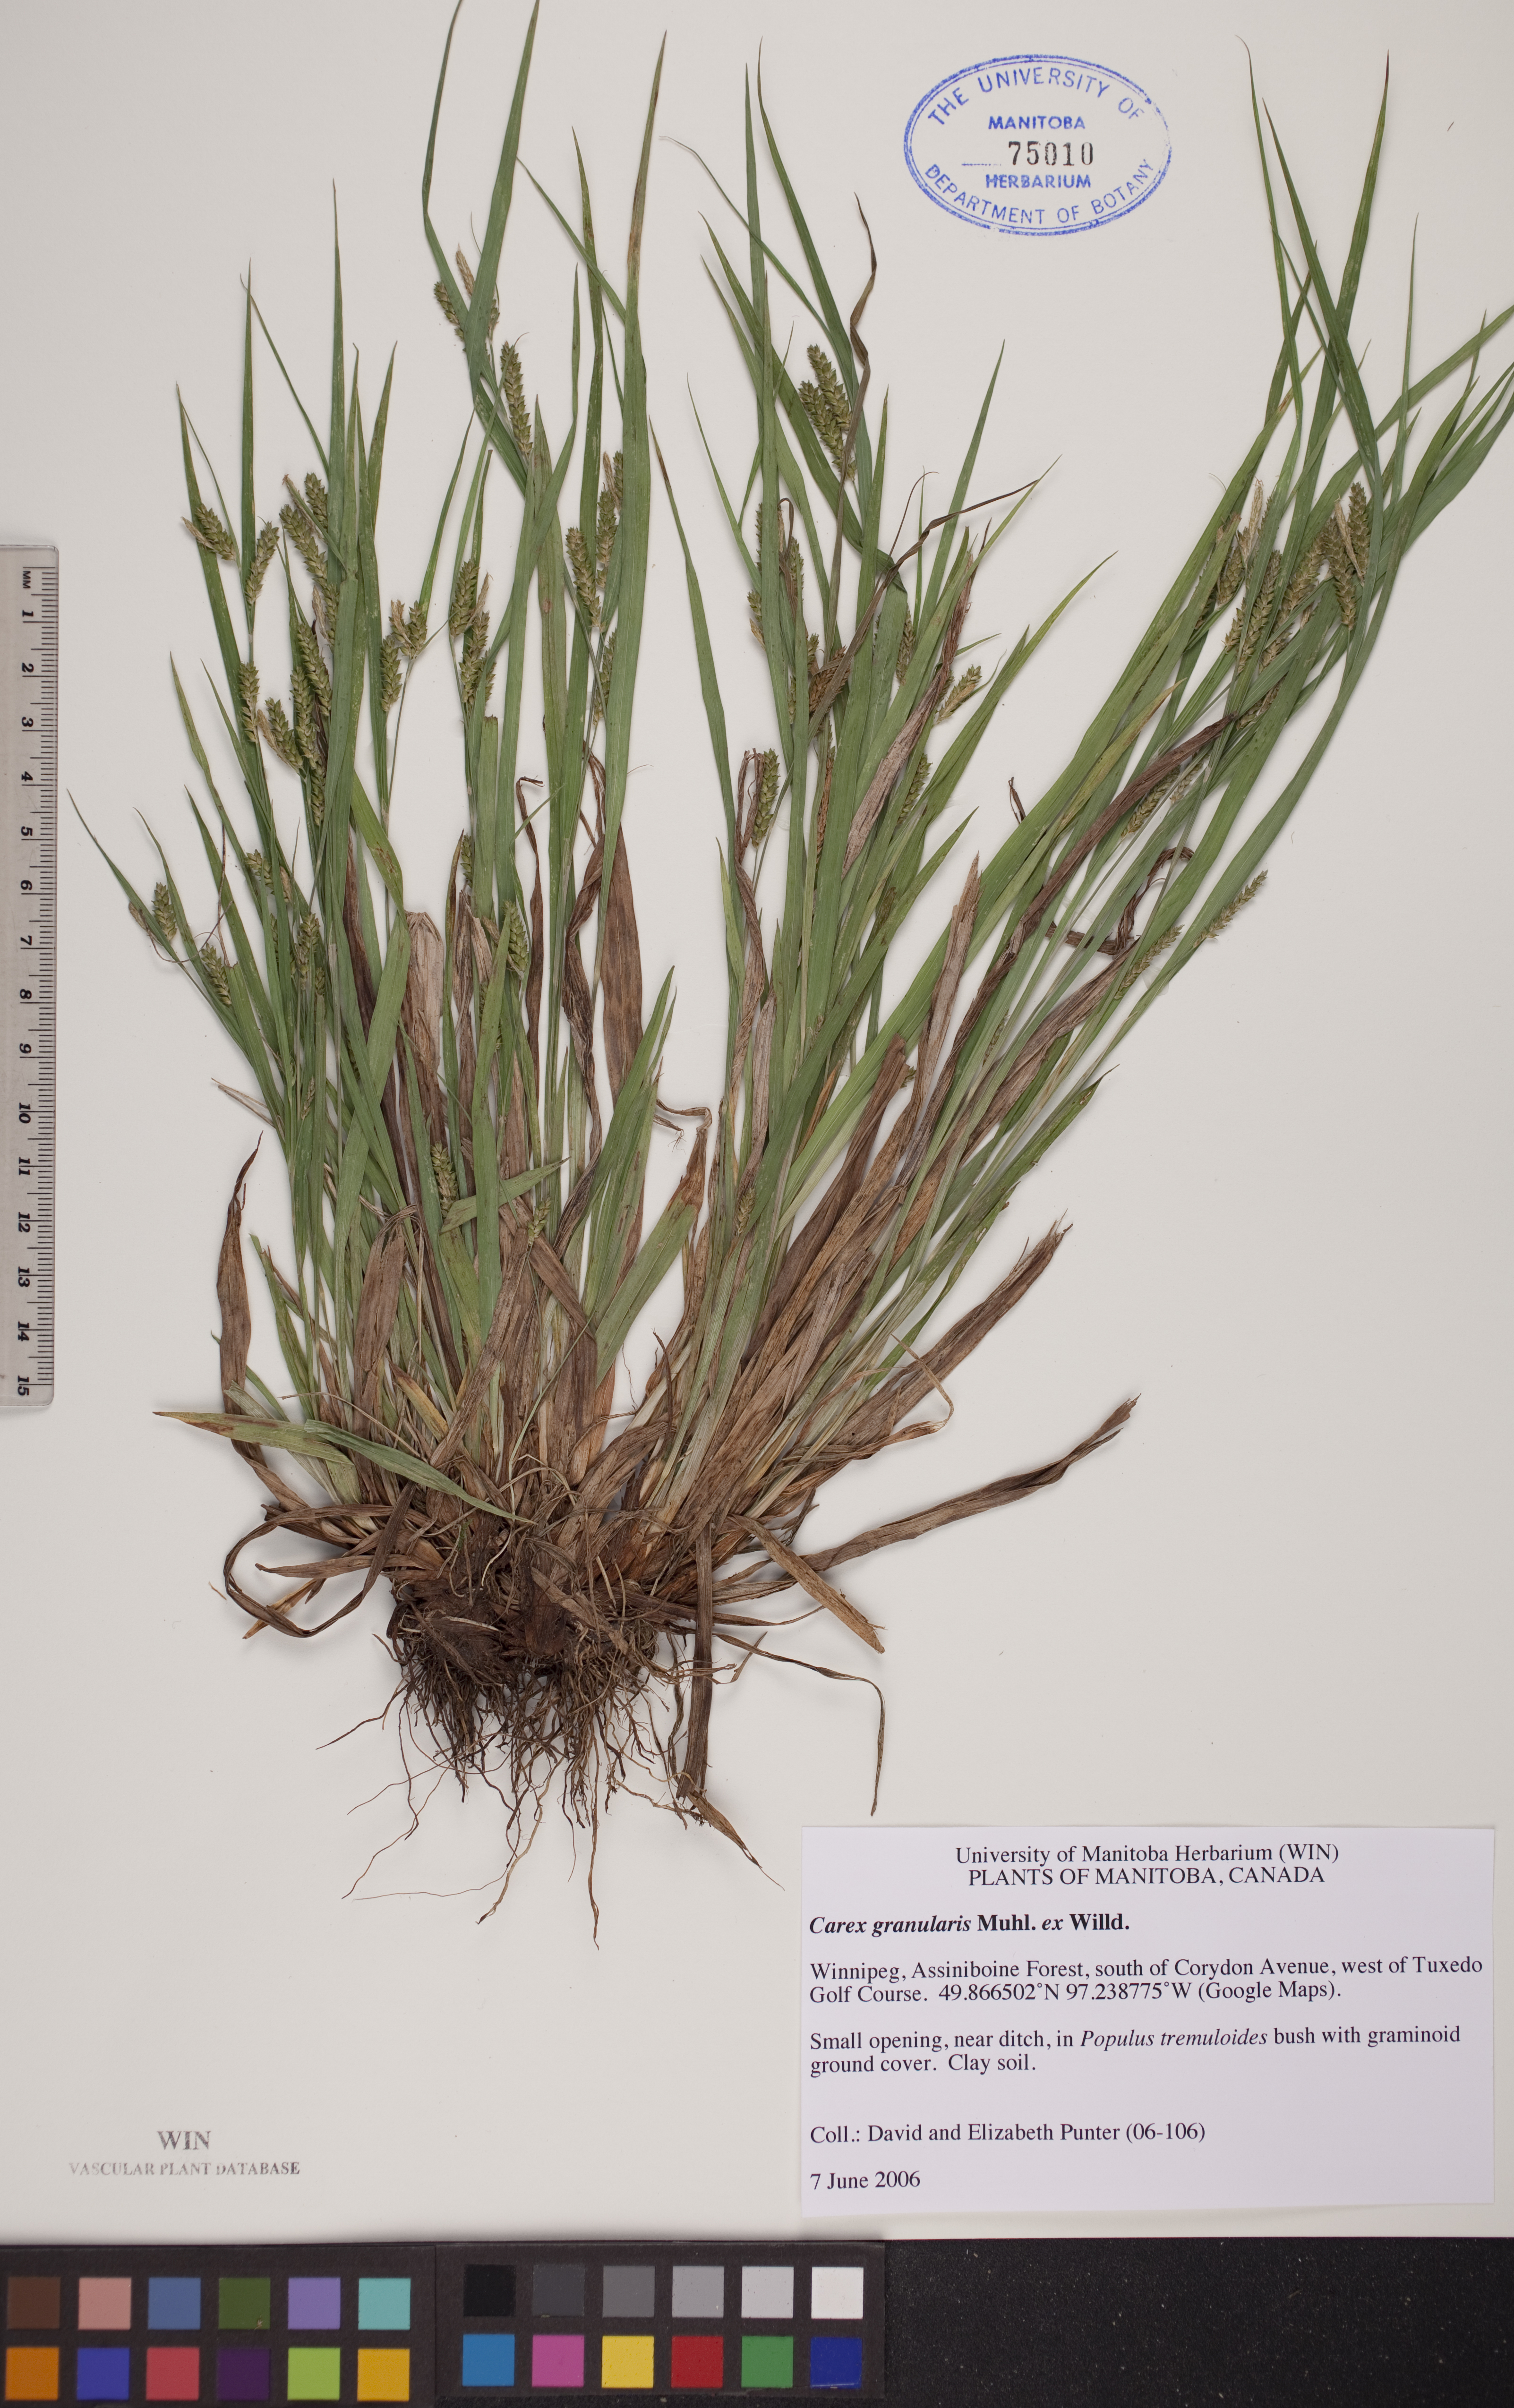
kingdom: Plantae
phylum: Tracheophyta
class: Liliopsida
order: Poales
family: Cyperaceae
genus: Carex
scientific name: Carex granularis
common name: Granular sedge
